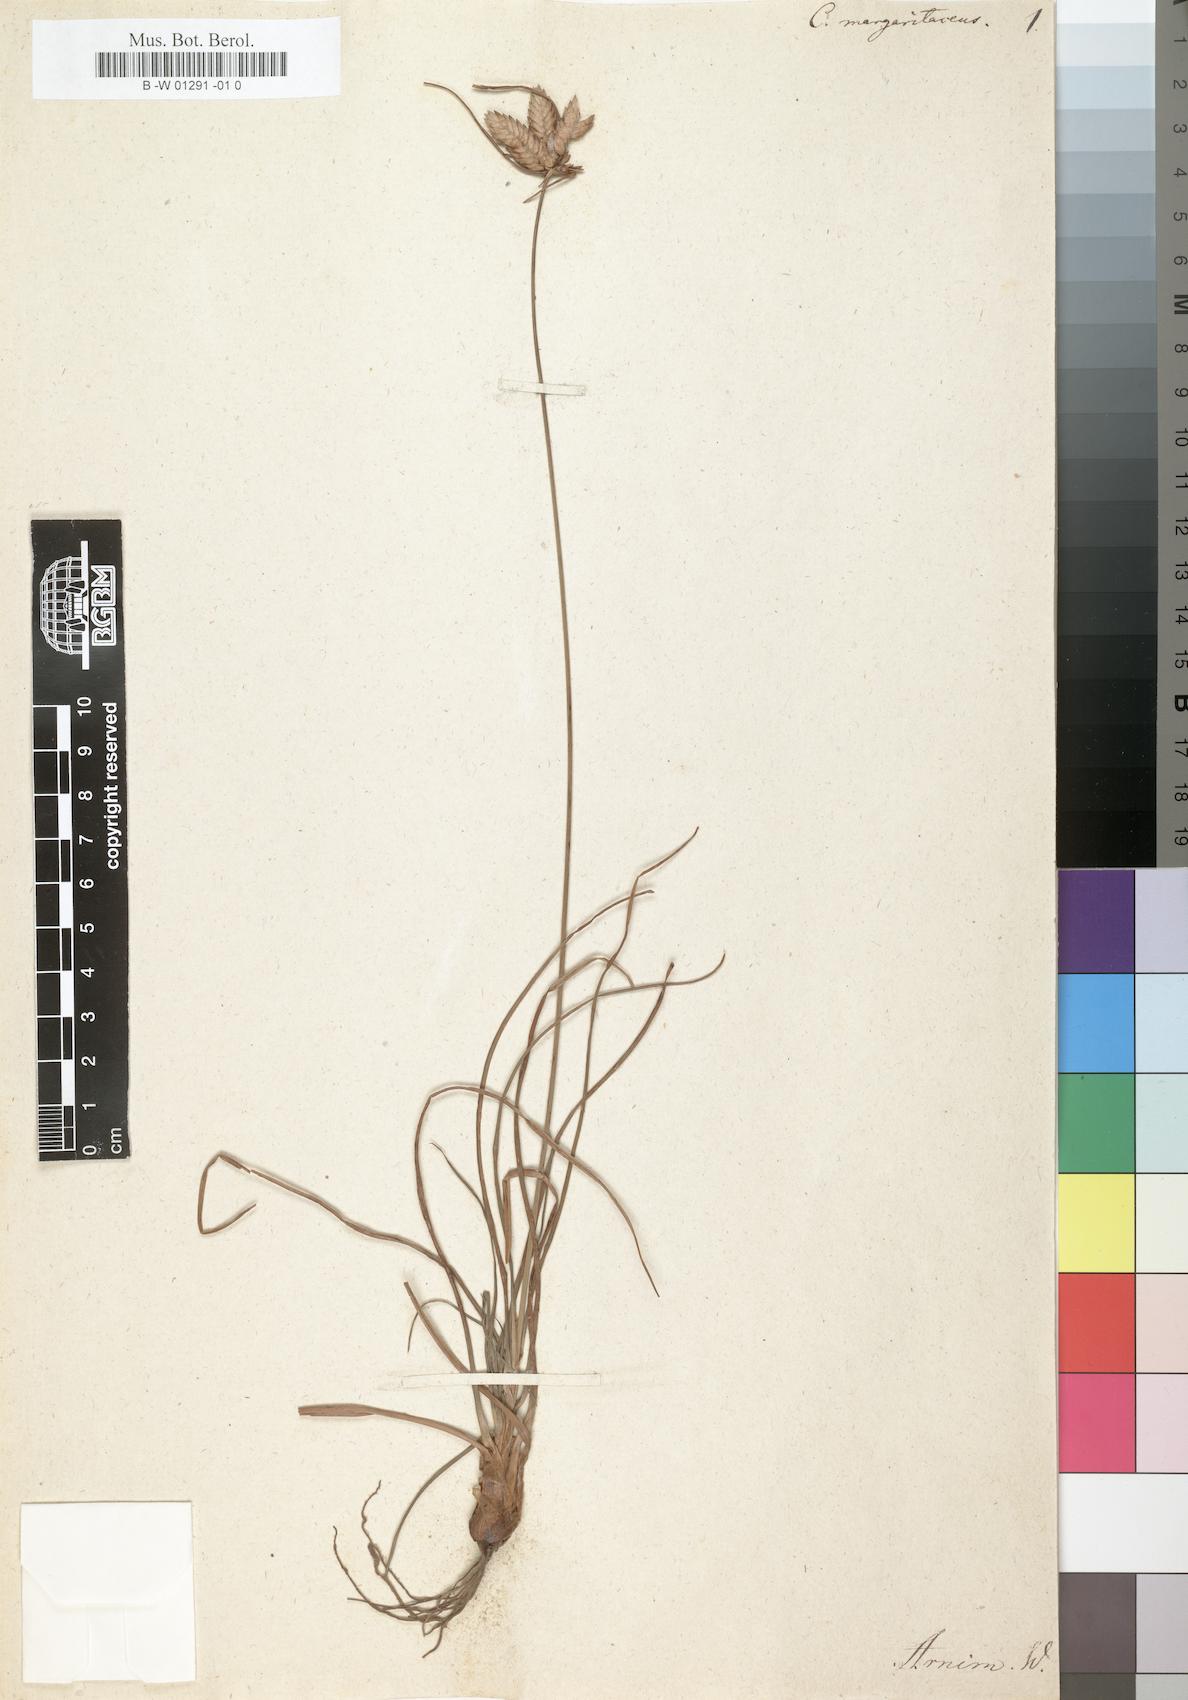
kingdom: Plantae
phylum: Tracheophyta
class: Liliopsida
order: Poales
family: Cyperaceae
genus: Cyperus
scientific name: Cyperus margaritaceus
